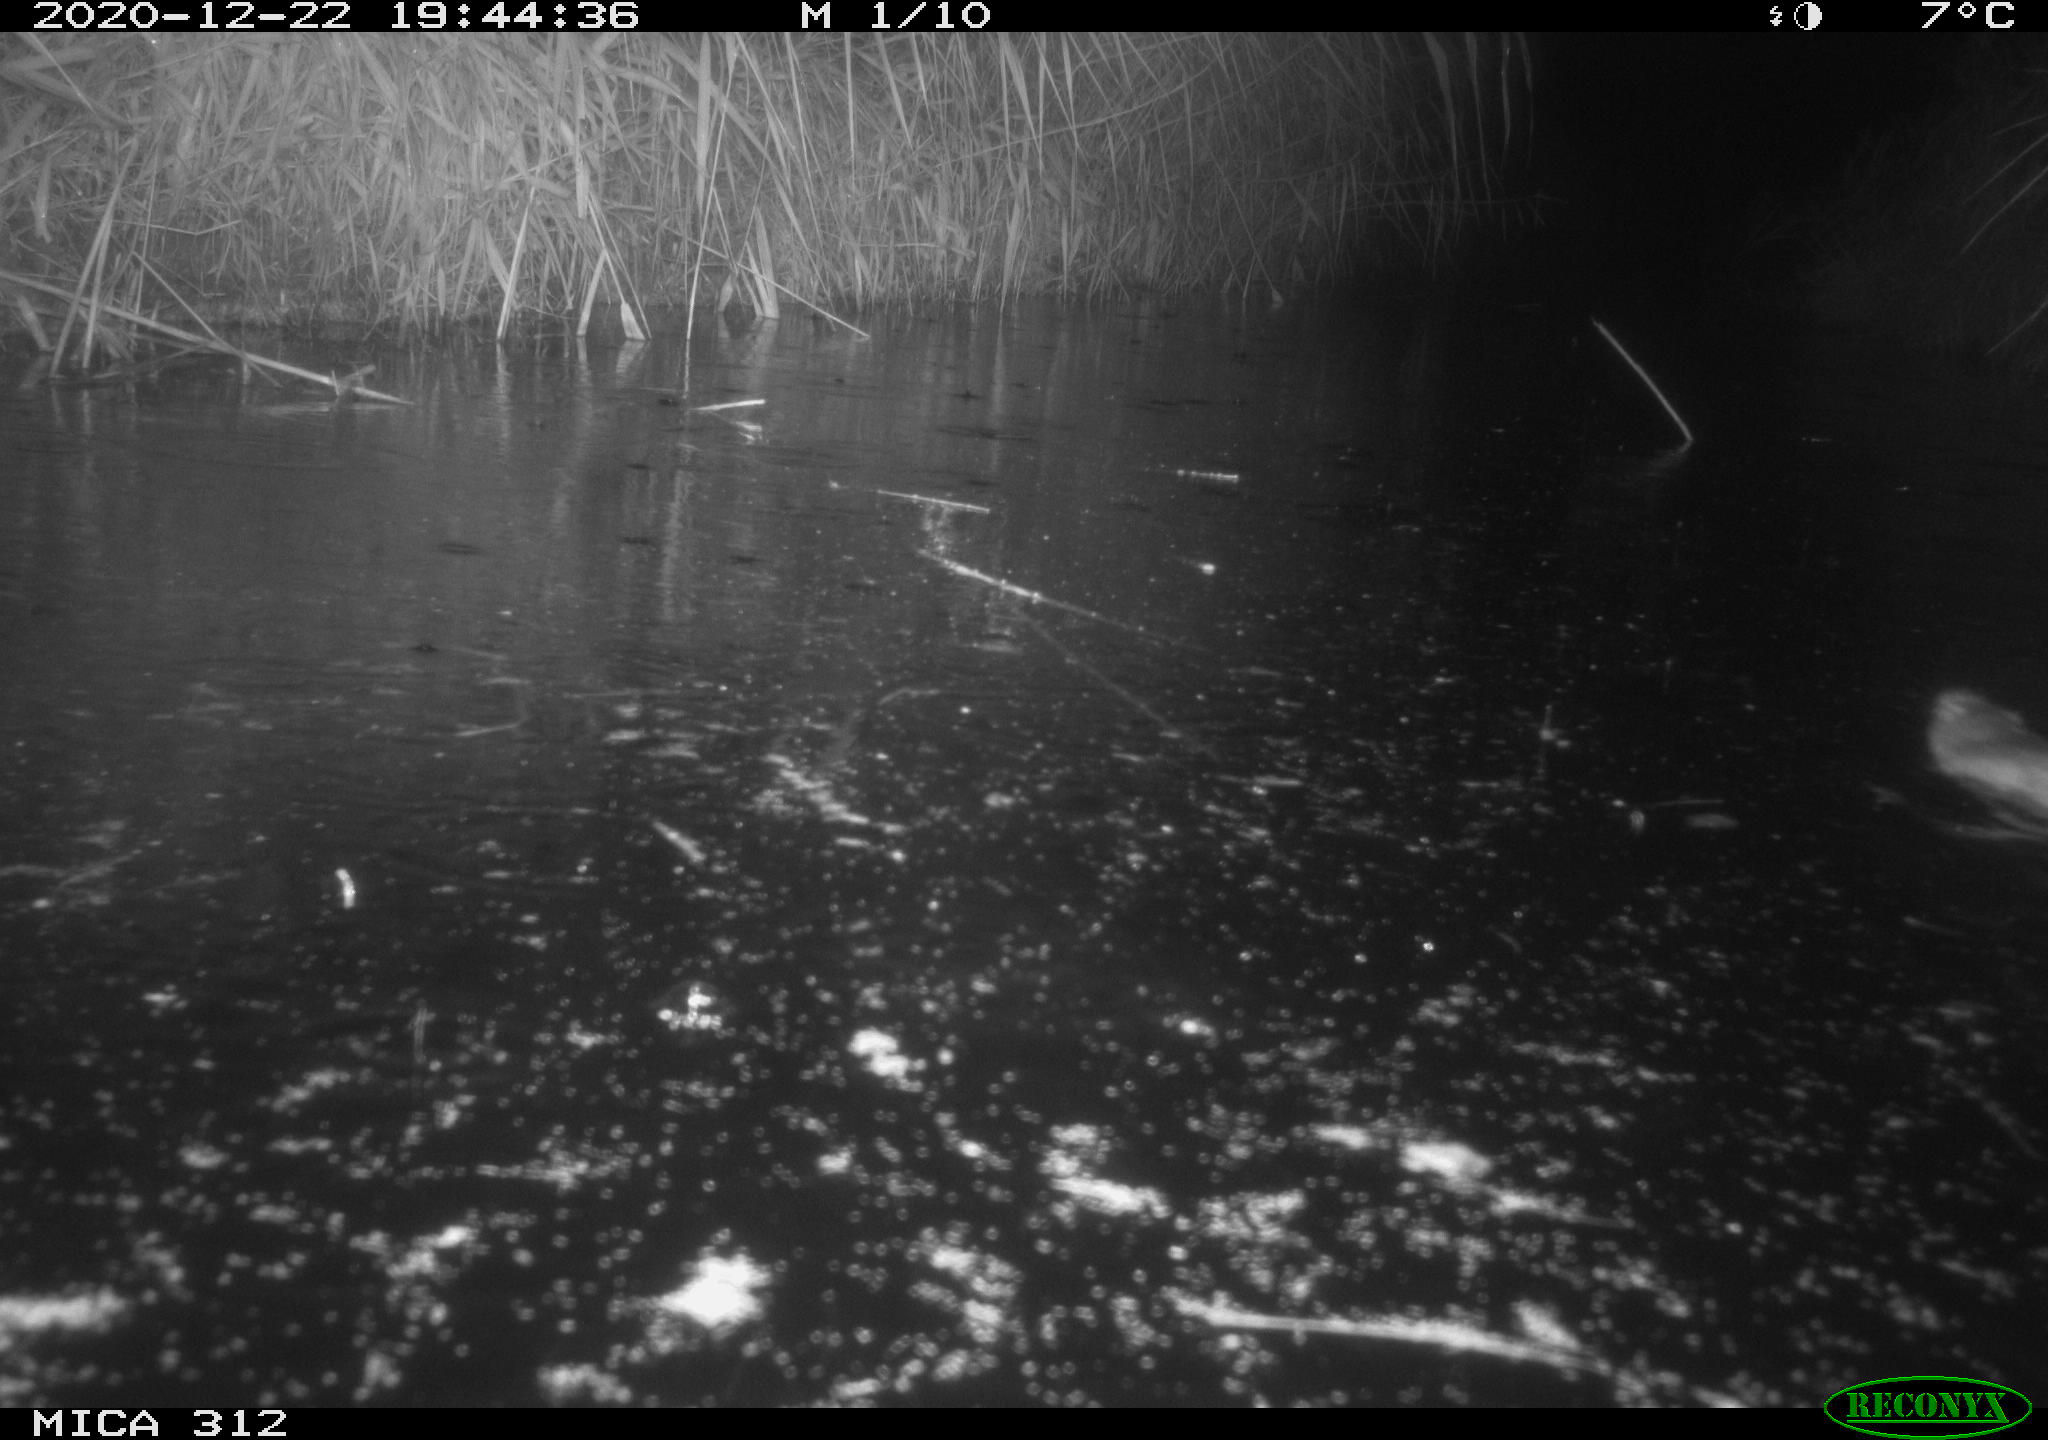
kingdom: Animalia
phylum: Chordata
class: Mammalia
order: Rodentia
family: Muridae
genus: Rattus
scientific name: Rattus norvegicus
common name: Brown rat
